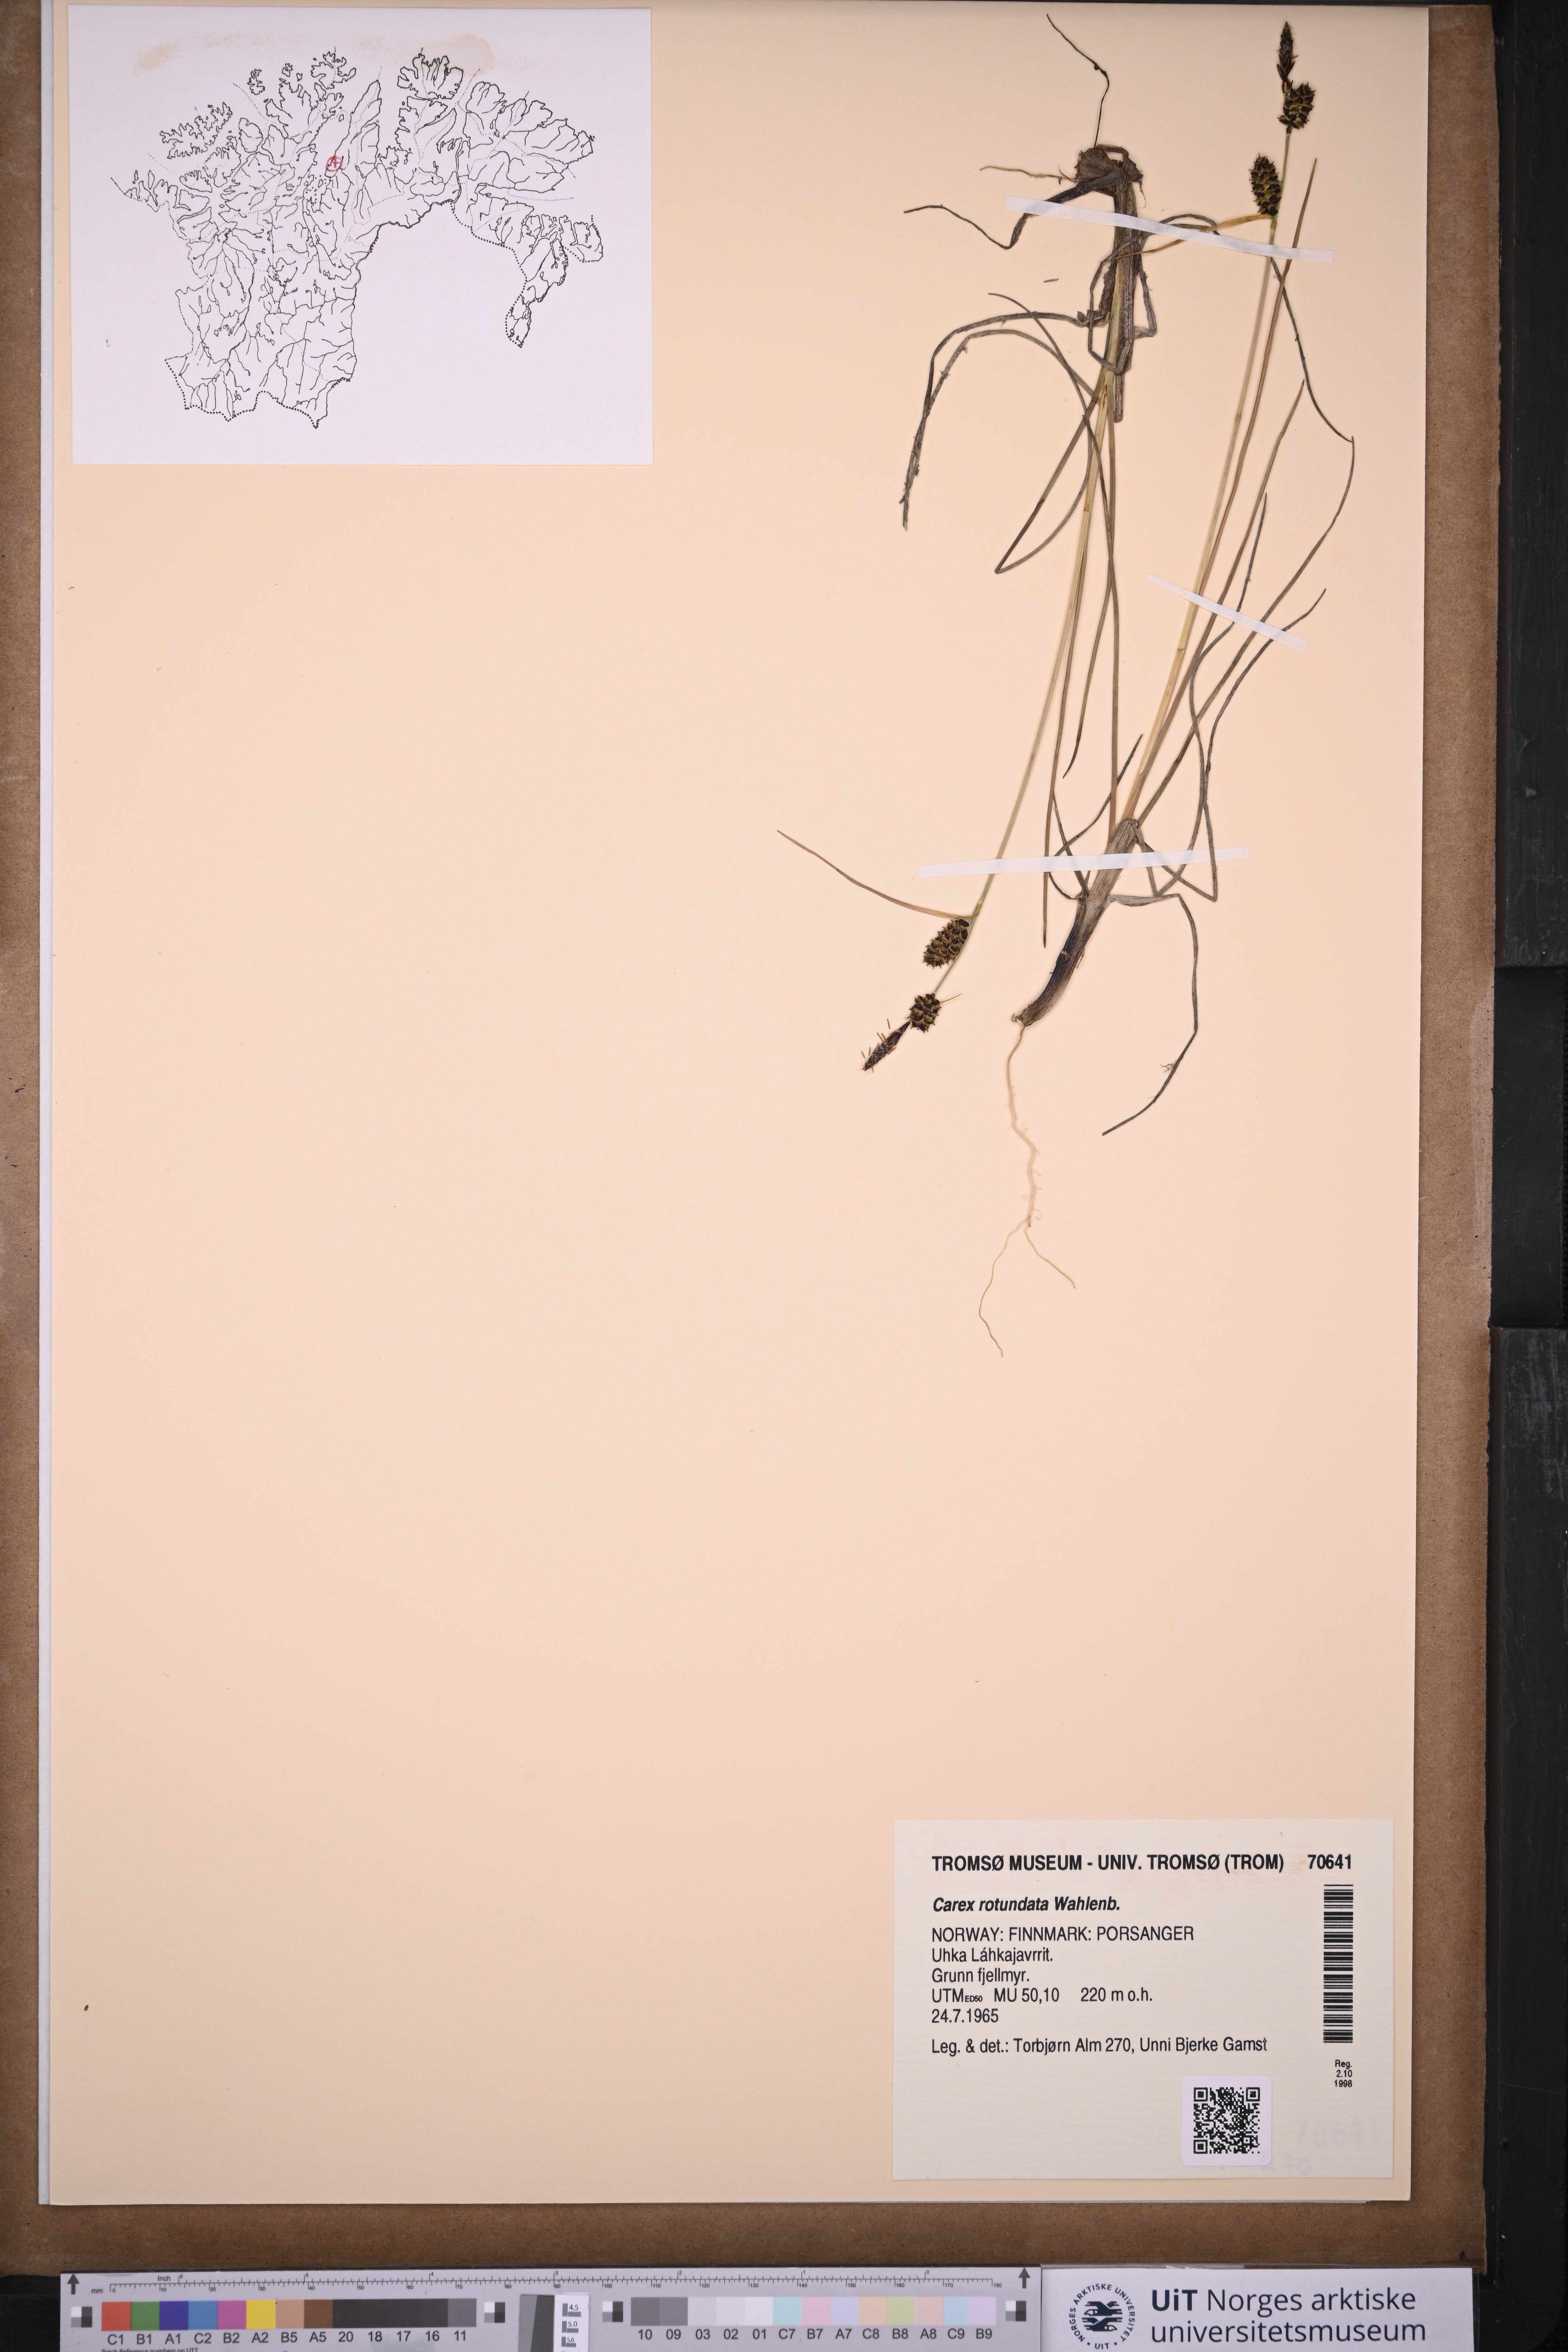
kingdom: Plantae
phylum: Tracheophyta
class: Liliopsida
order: Poales
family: Cyperaceae
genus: Carex
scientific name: Carex rotundata
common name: Round-fruited sedge
